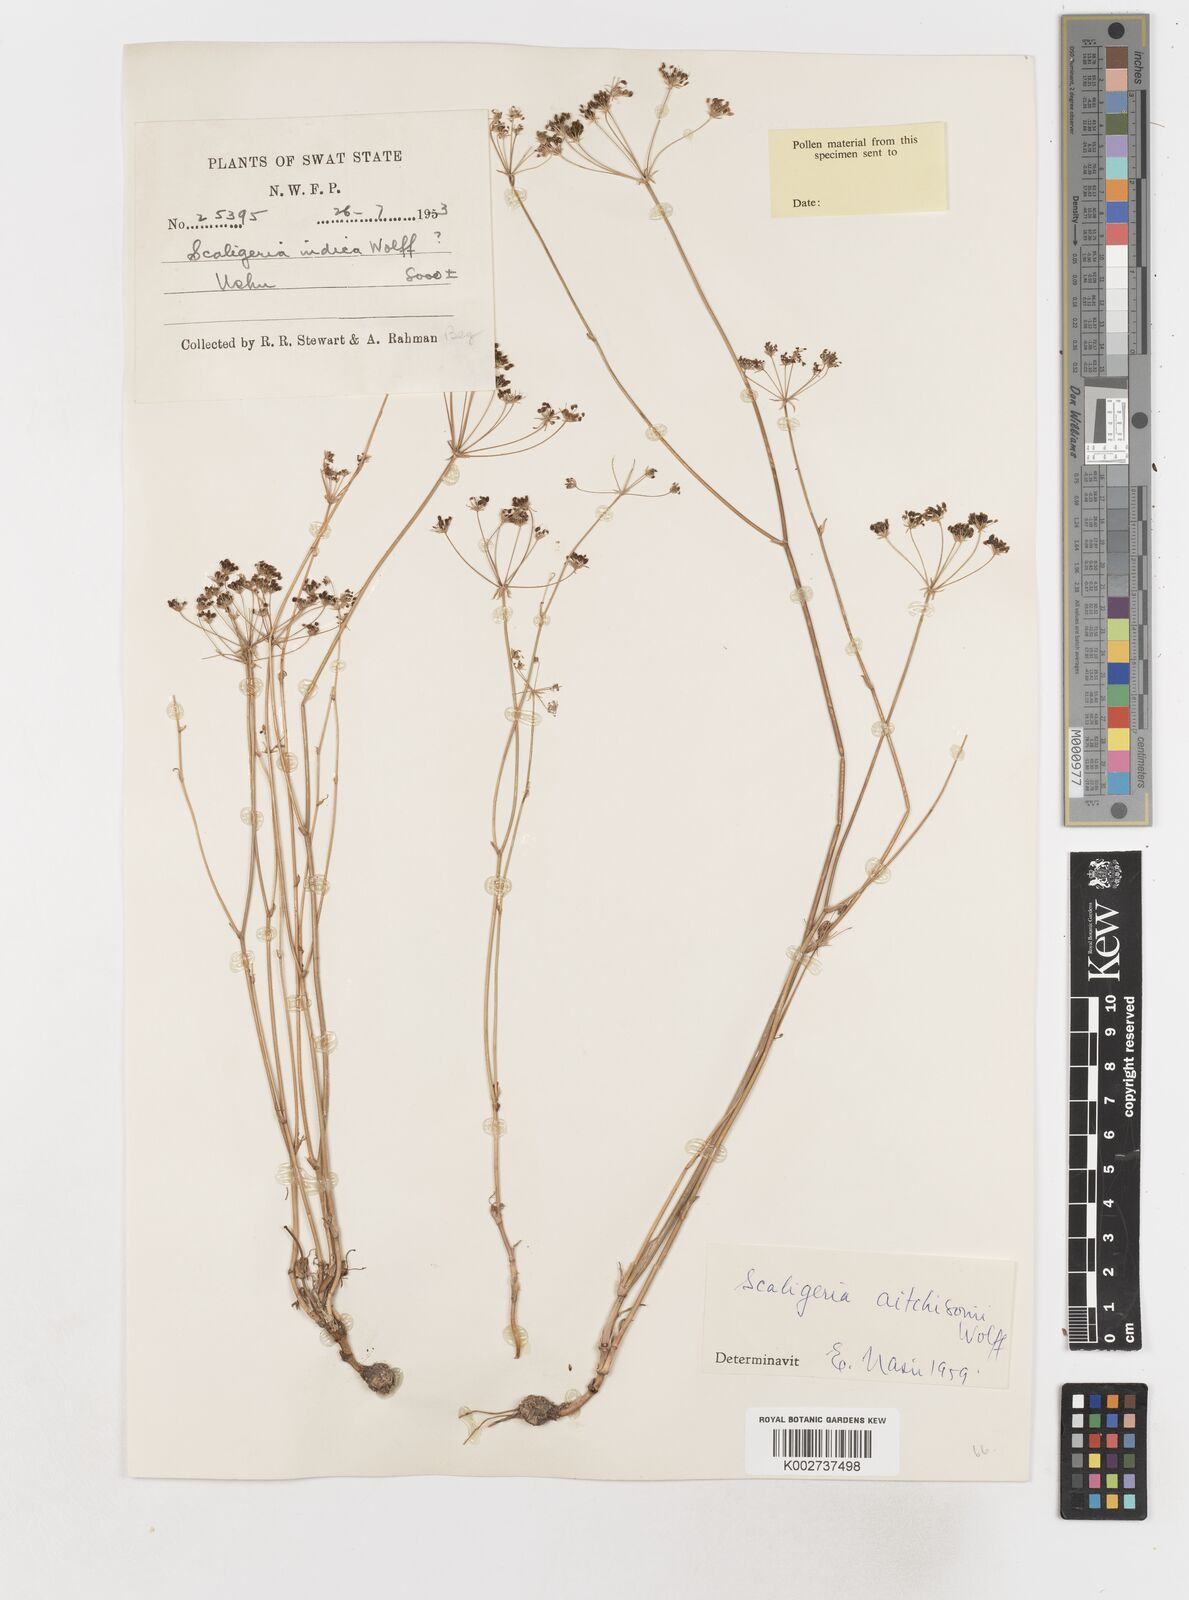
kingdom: Plantae
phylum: Tracheophyta
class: Magnoliopsida
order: Apiales
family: Apiaceae
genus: Scaligeria
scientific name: Scaligeria hirtula
